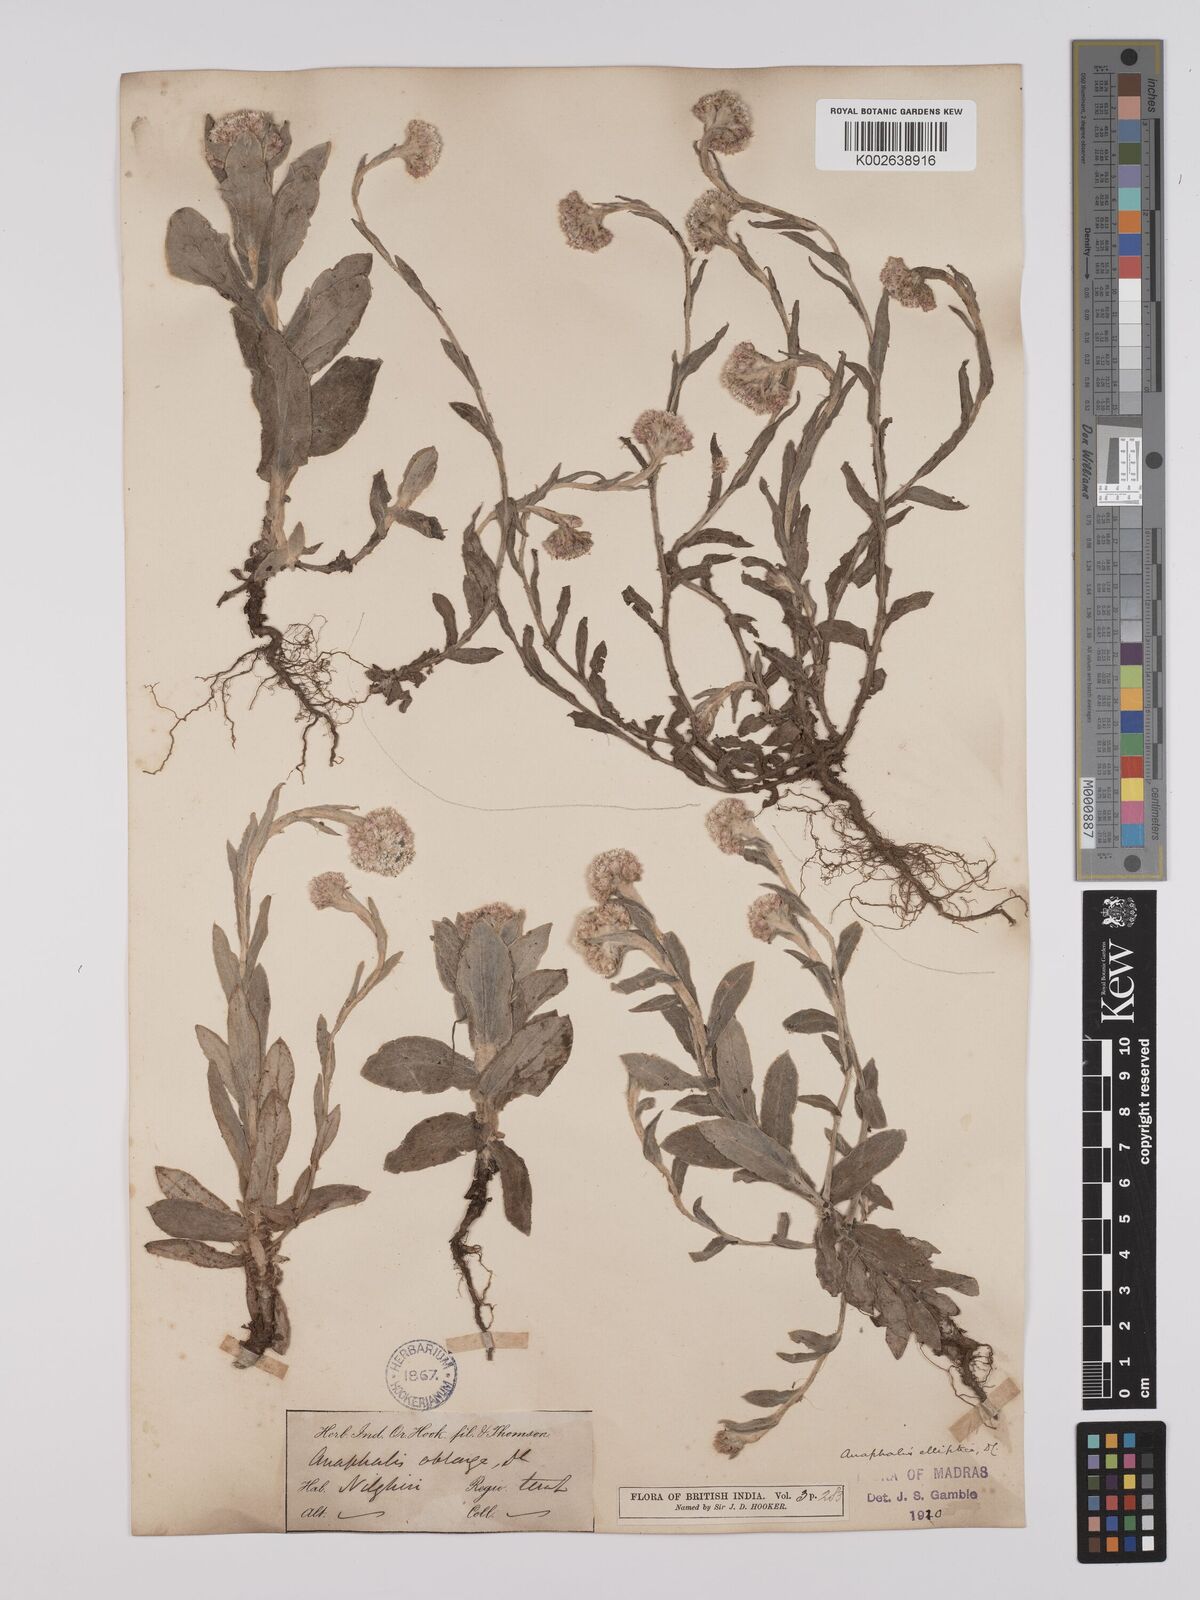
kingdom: Plantae
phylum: Tracheophyta
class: Magnoliopsida
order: Asterales
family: Asteraceae
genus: Anaphalis
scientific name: Anaphalis elliptica
